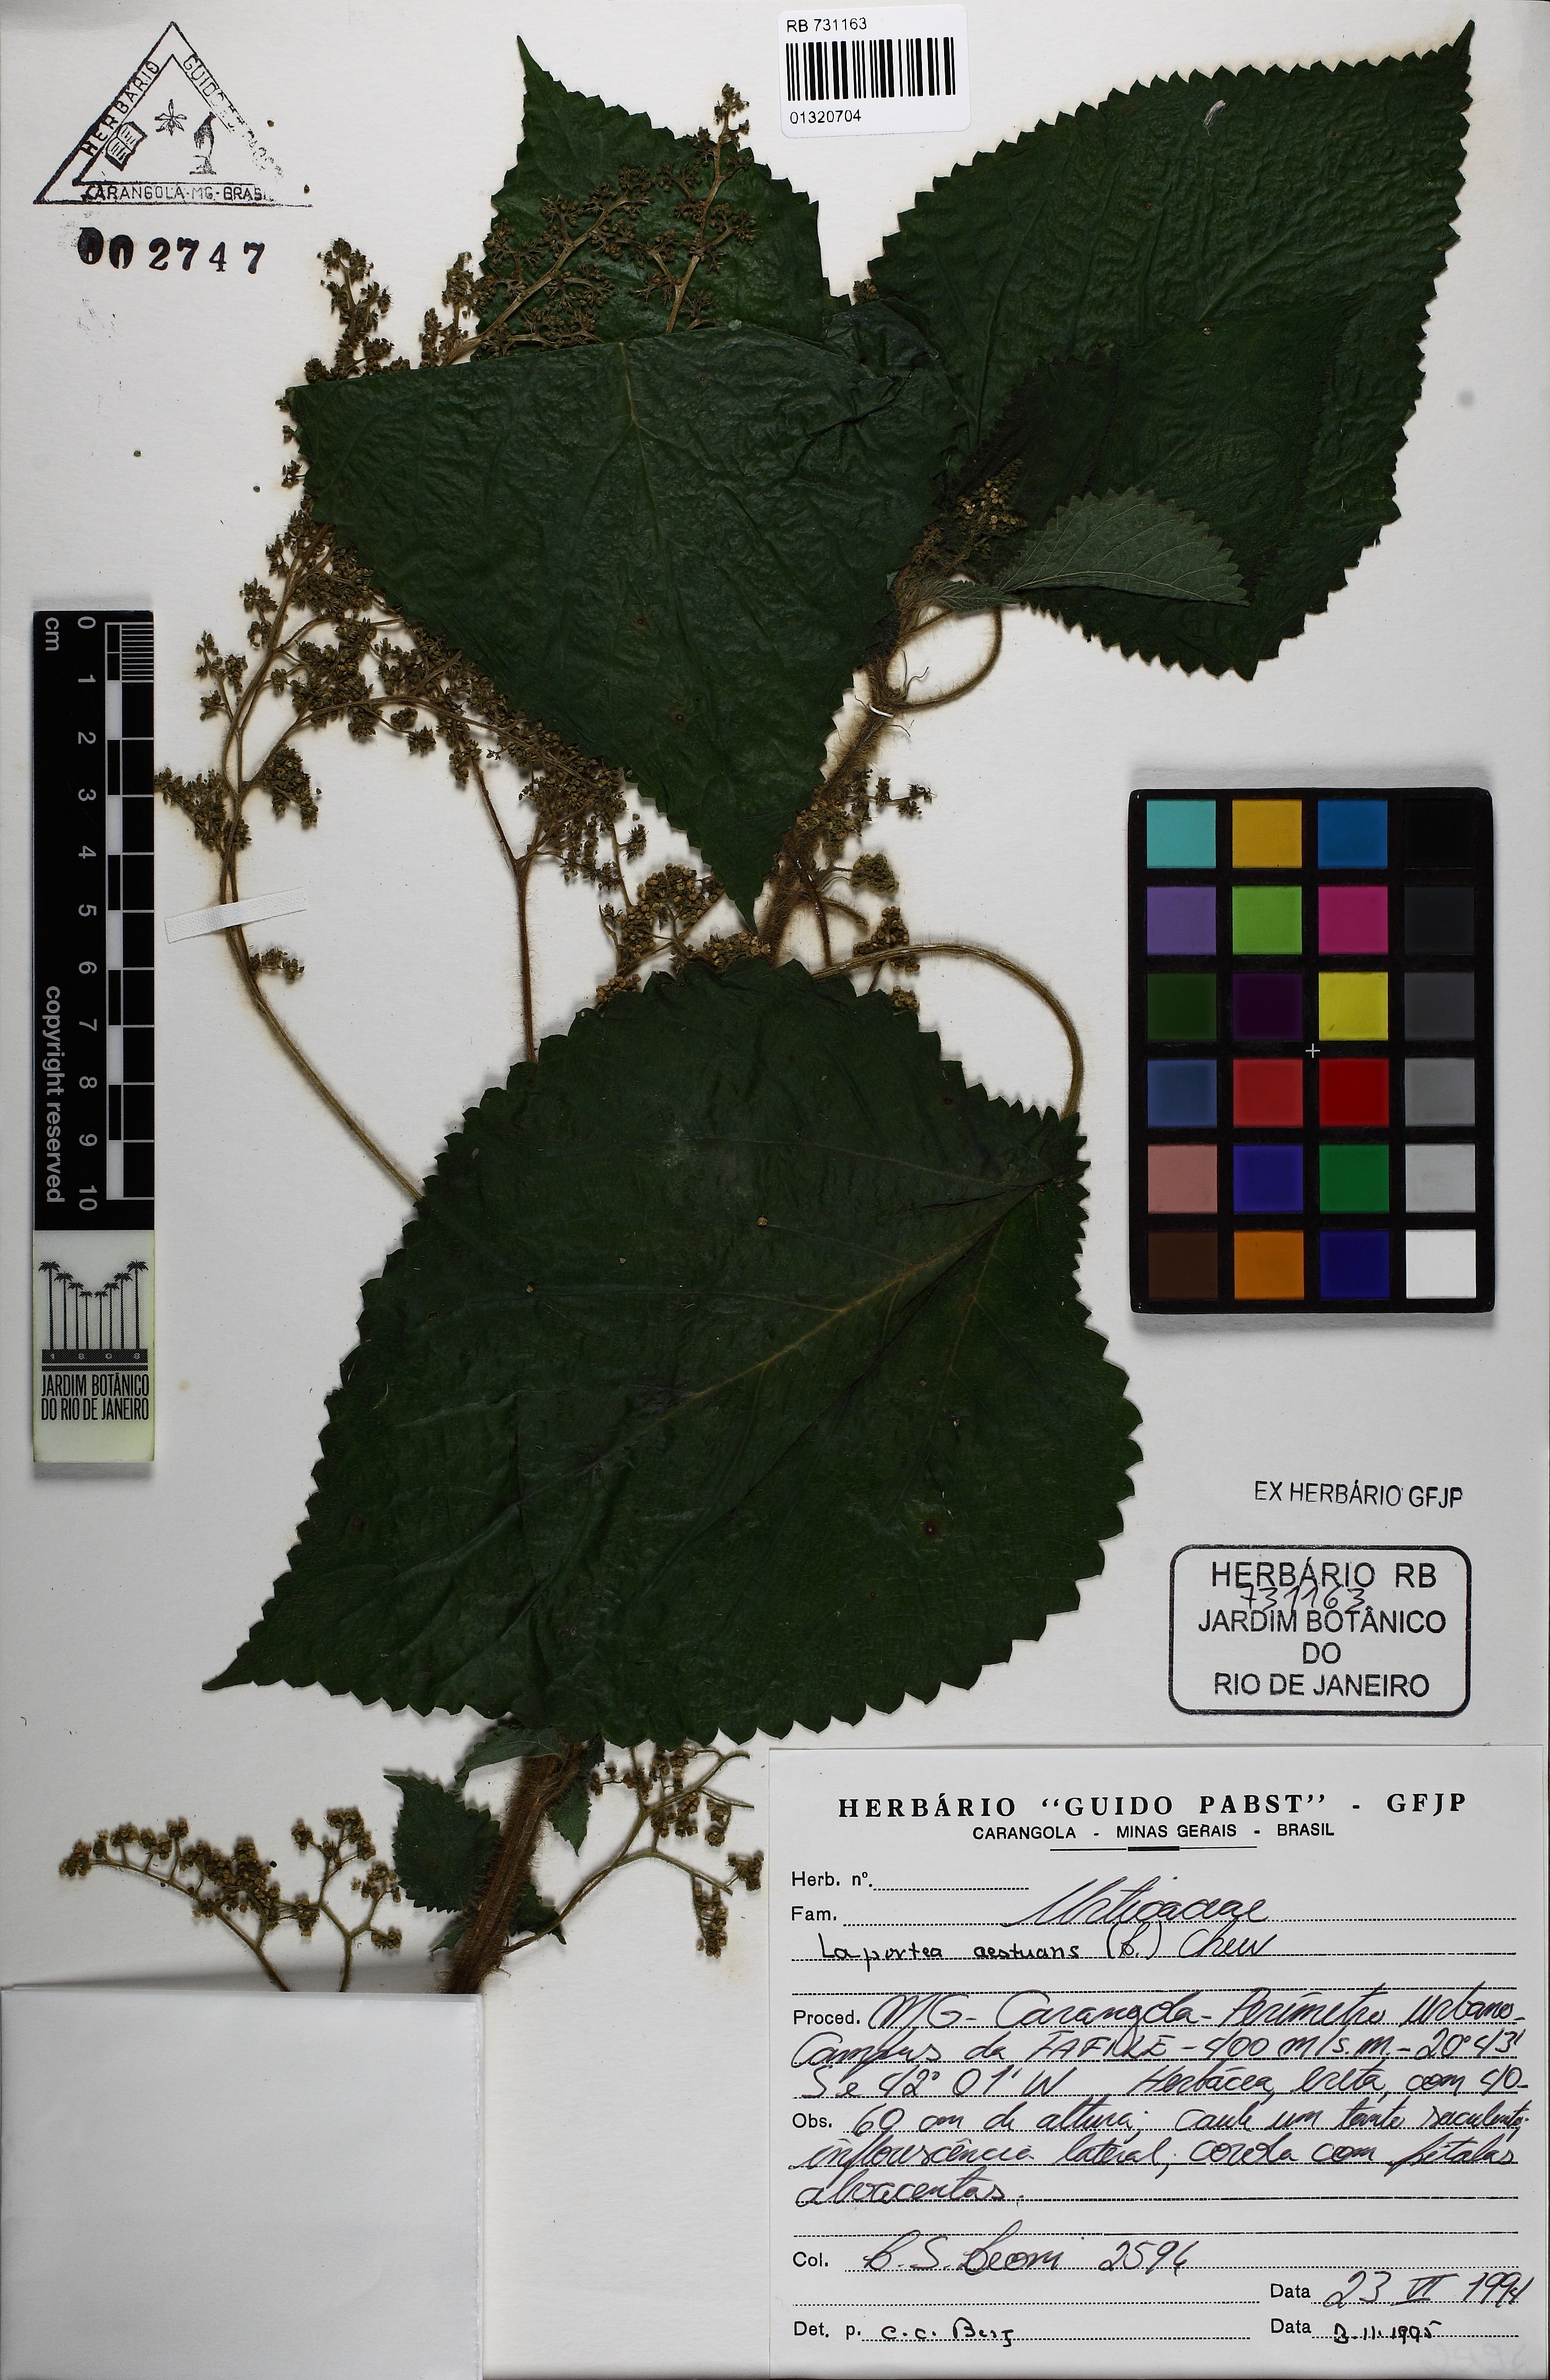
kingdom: Plantae
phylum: Tracheophyta
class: Magnoliopsida
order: Rosales
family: Urticaceae
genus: Laportea
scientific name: Laportea aestuans
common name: West indian woodnettle
